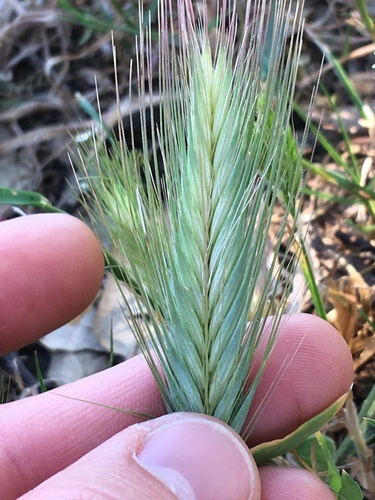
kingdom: Plantae
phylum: Tracheophyta
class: Liliopsida
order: Poales
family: Poaceae
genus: Hordeum
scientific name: Hordeum murinum
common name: Wall barley
